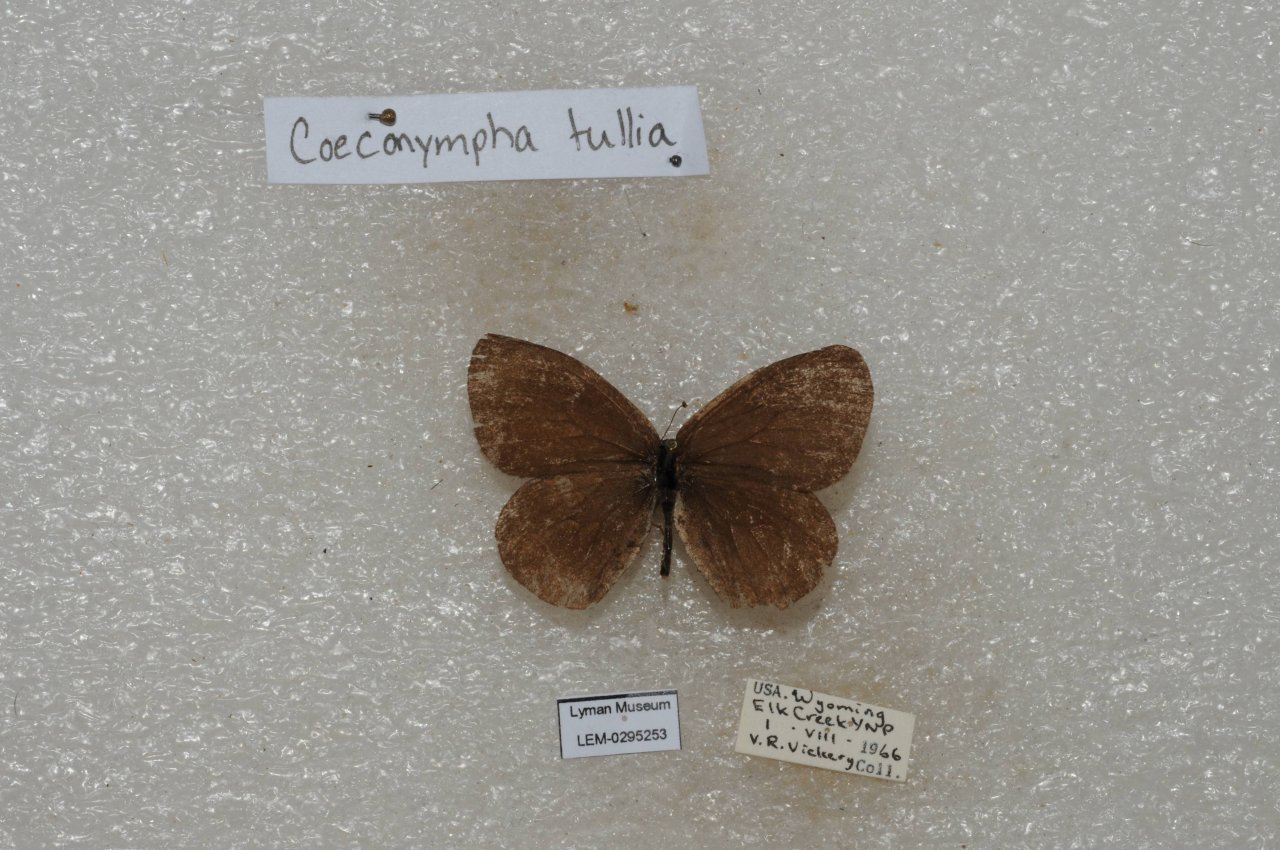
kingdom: Animalia
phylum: Arthropoda
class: Insecta
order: Lepidoptera
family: Nymphalidae
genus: Coenonympha
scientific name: Coenonympha haydeni
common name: Hayden's Ringlet
